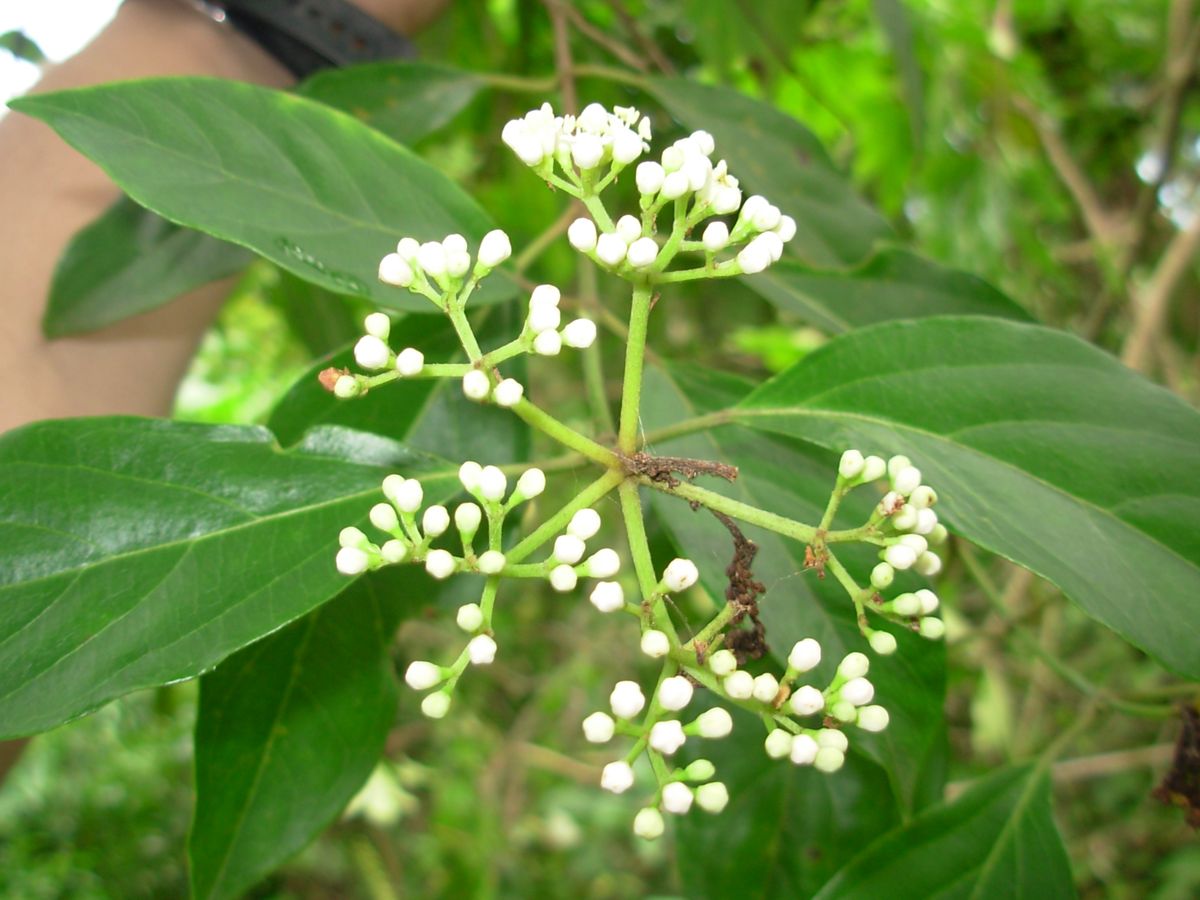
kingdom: Plantae
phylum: Tracheophyta
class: Magnoliopsida
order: Dipsacales
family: Viburnaceae
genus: Viburnum
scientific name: Viburnum hartwegii
